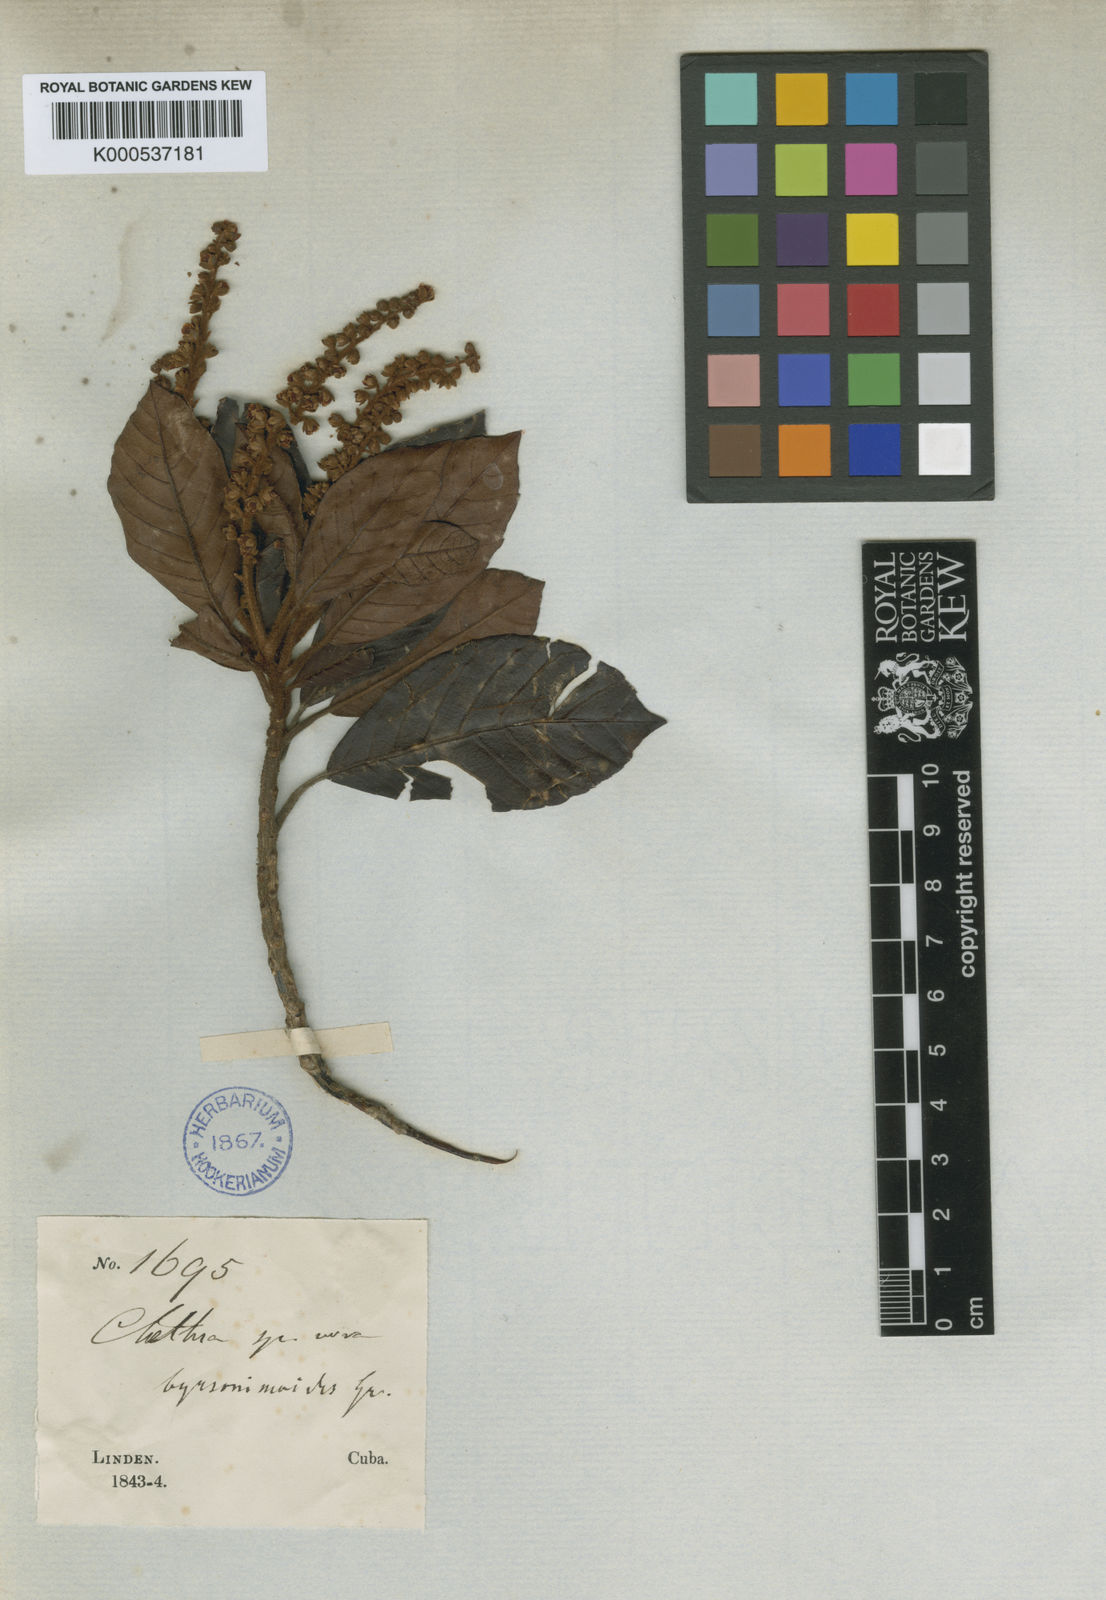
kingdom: Plantae
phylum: Tracheophyta
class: Magnoliopsida
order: Ericales
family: Clethraceae
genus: Clethra
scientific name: Clethra cubensis
